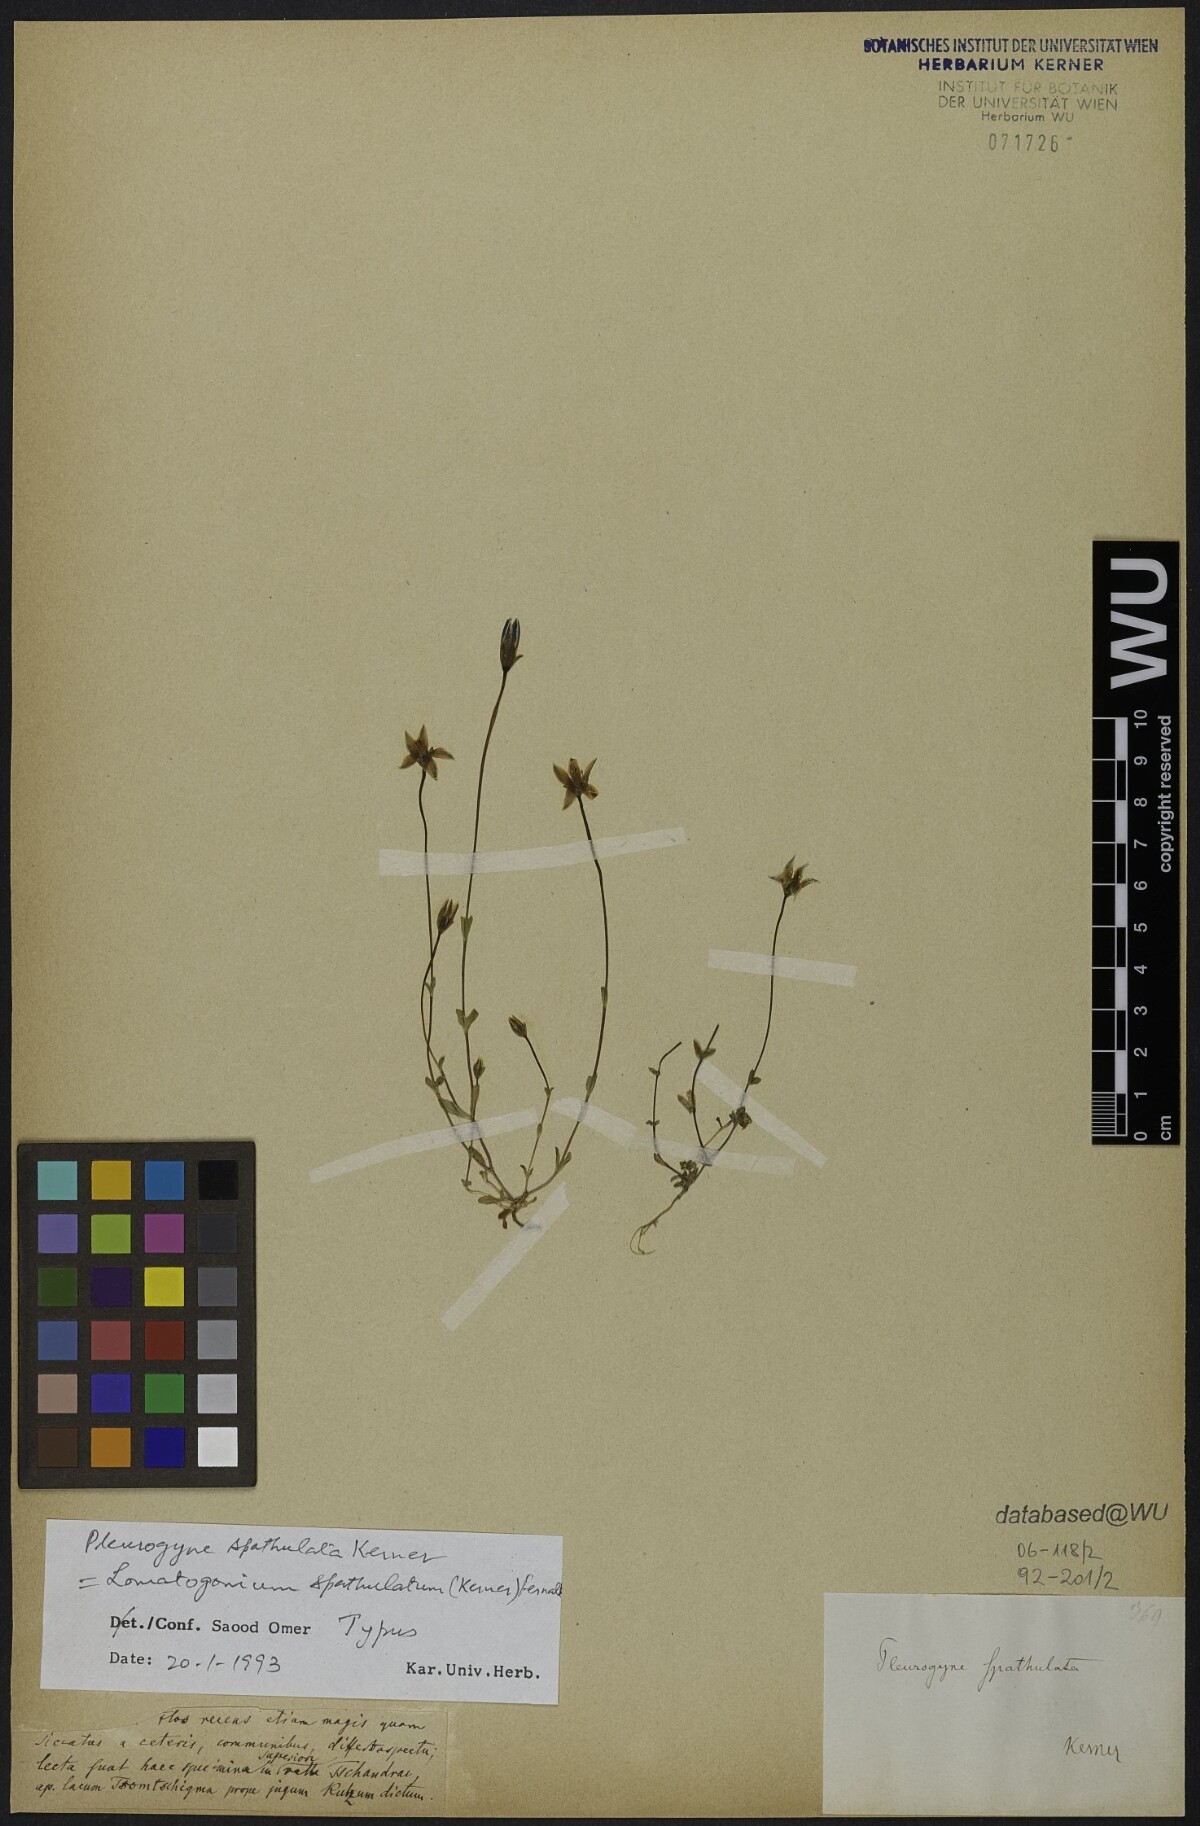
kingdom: Plantae
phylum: Tracheophyta
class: Magnoliopsida
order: Gentianales
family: Gentianaceae
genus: Lomatogonium
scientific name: Lomatogonium caeruleum
